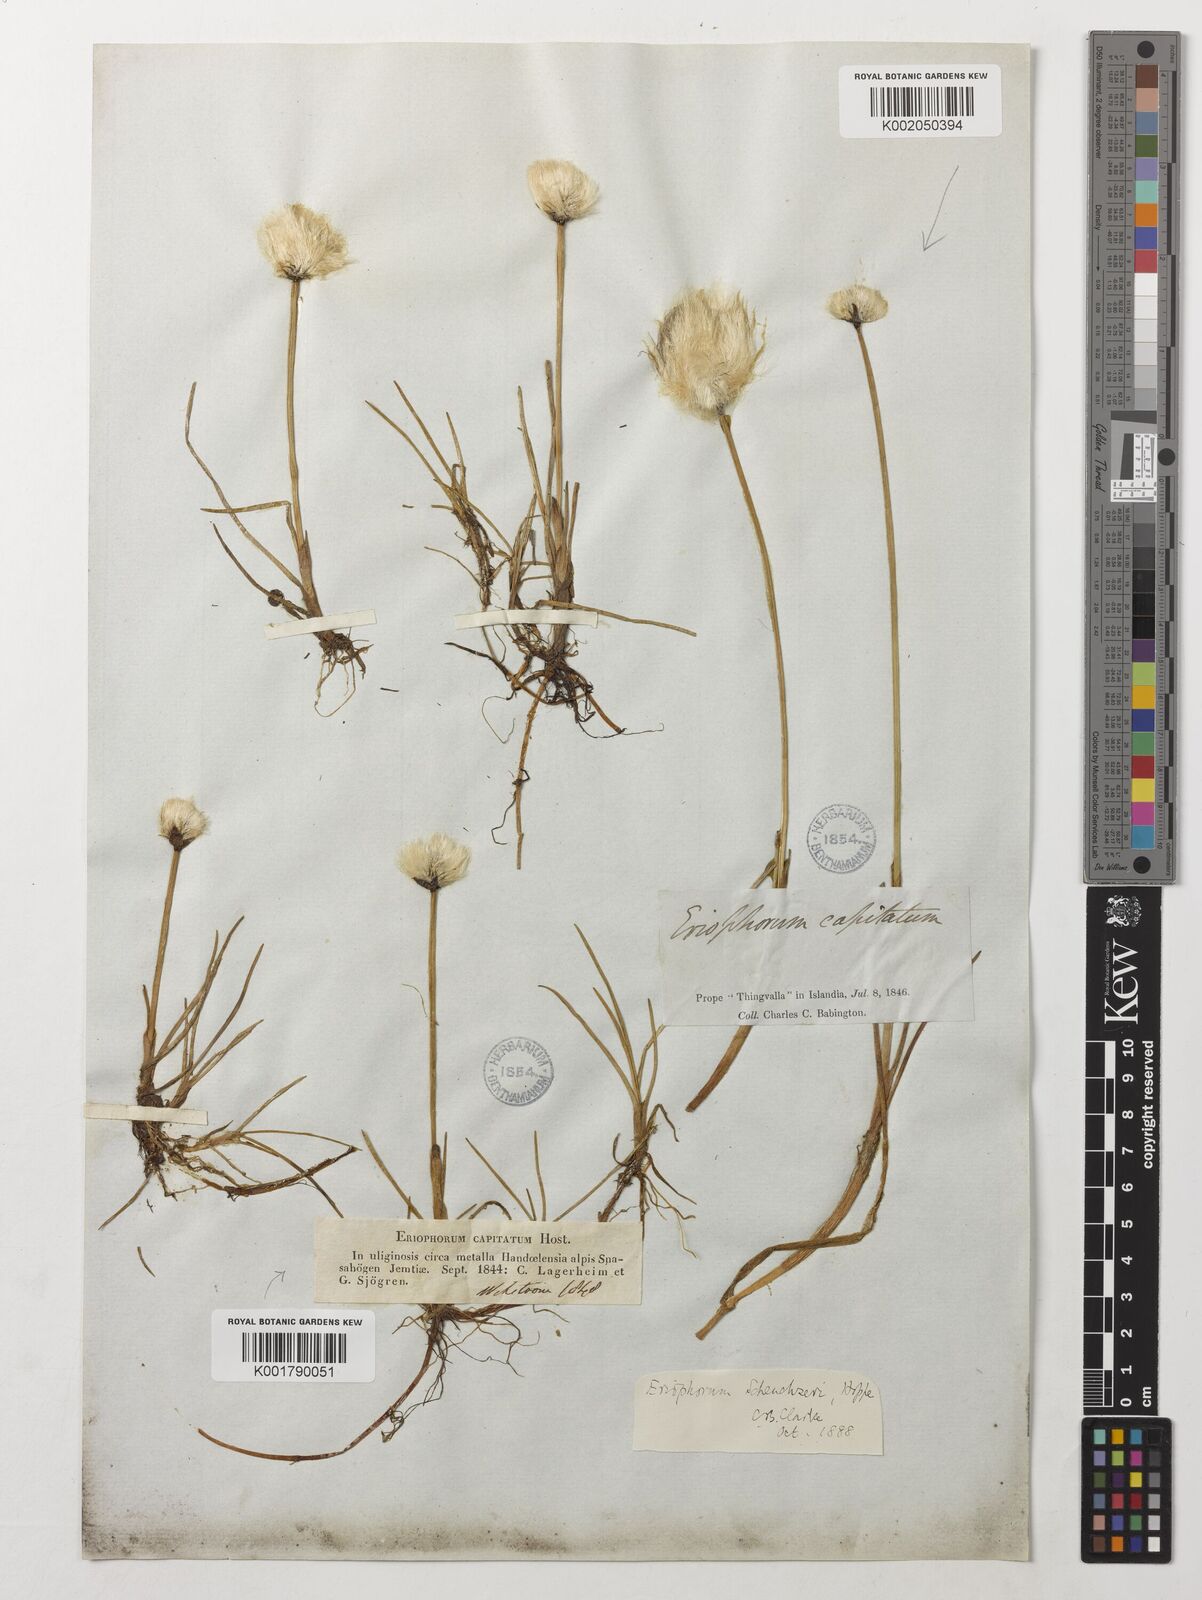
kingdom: Plantae
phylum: Tracheophyta
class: Liliopsida
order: Poales
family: Cyperaceae
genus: Eriophorum
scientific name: Eriophorum scheuchzeri
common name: Scheuchzer's cottongrass
